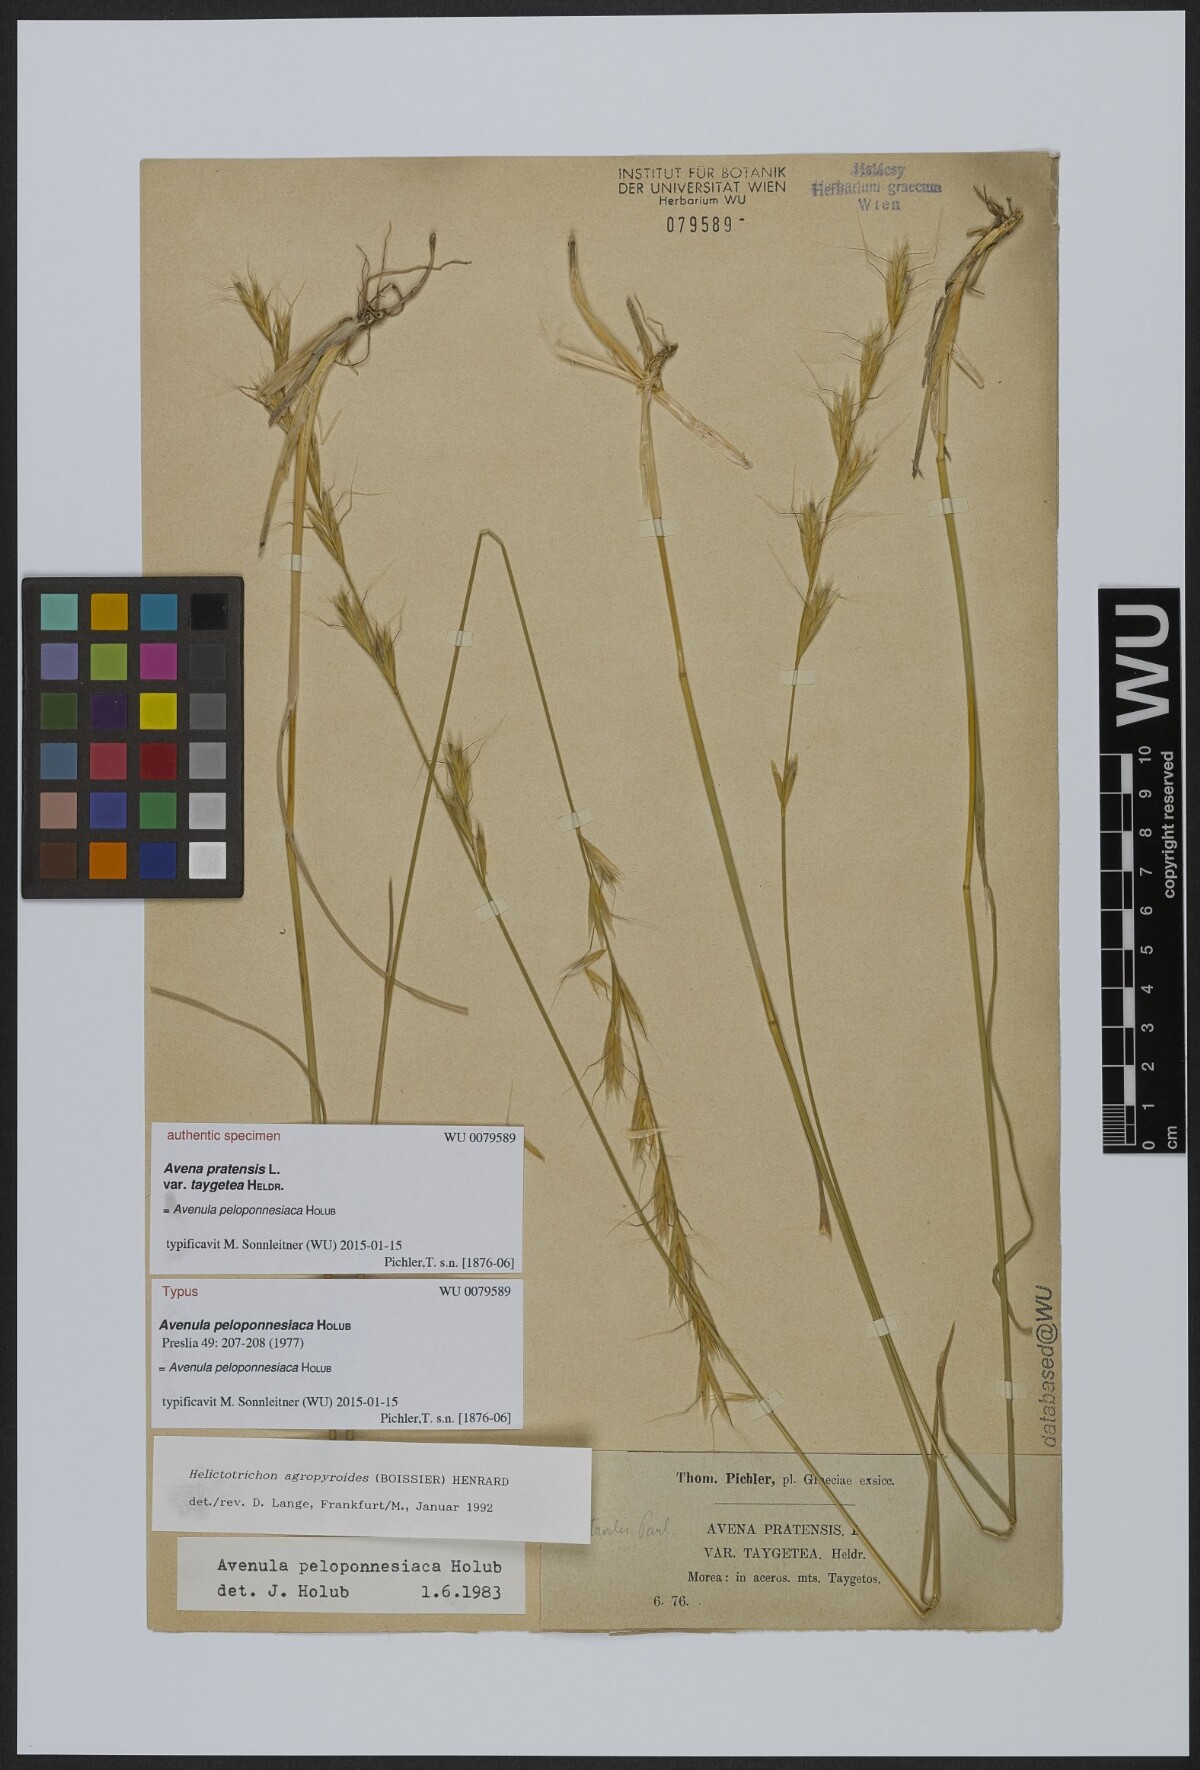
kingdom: Plantae
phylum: Tracheophyta
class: Liliopsida
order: Poales
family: Poaceae
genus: Helictochloa
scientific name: Helictochloa agropyroides
